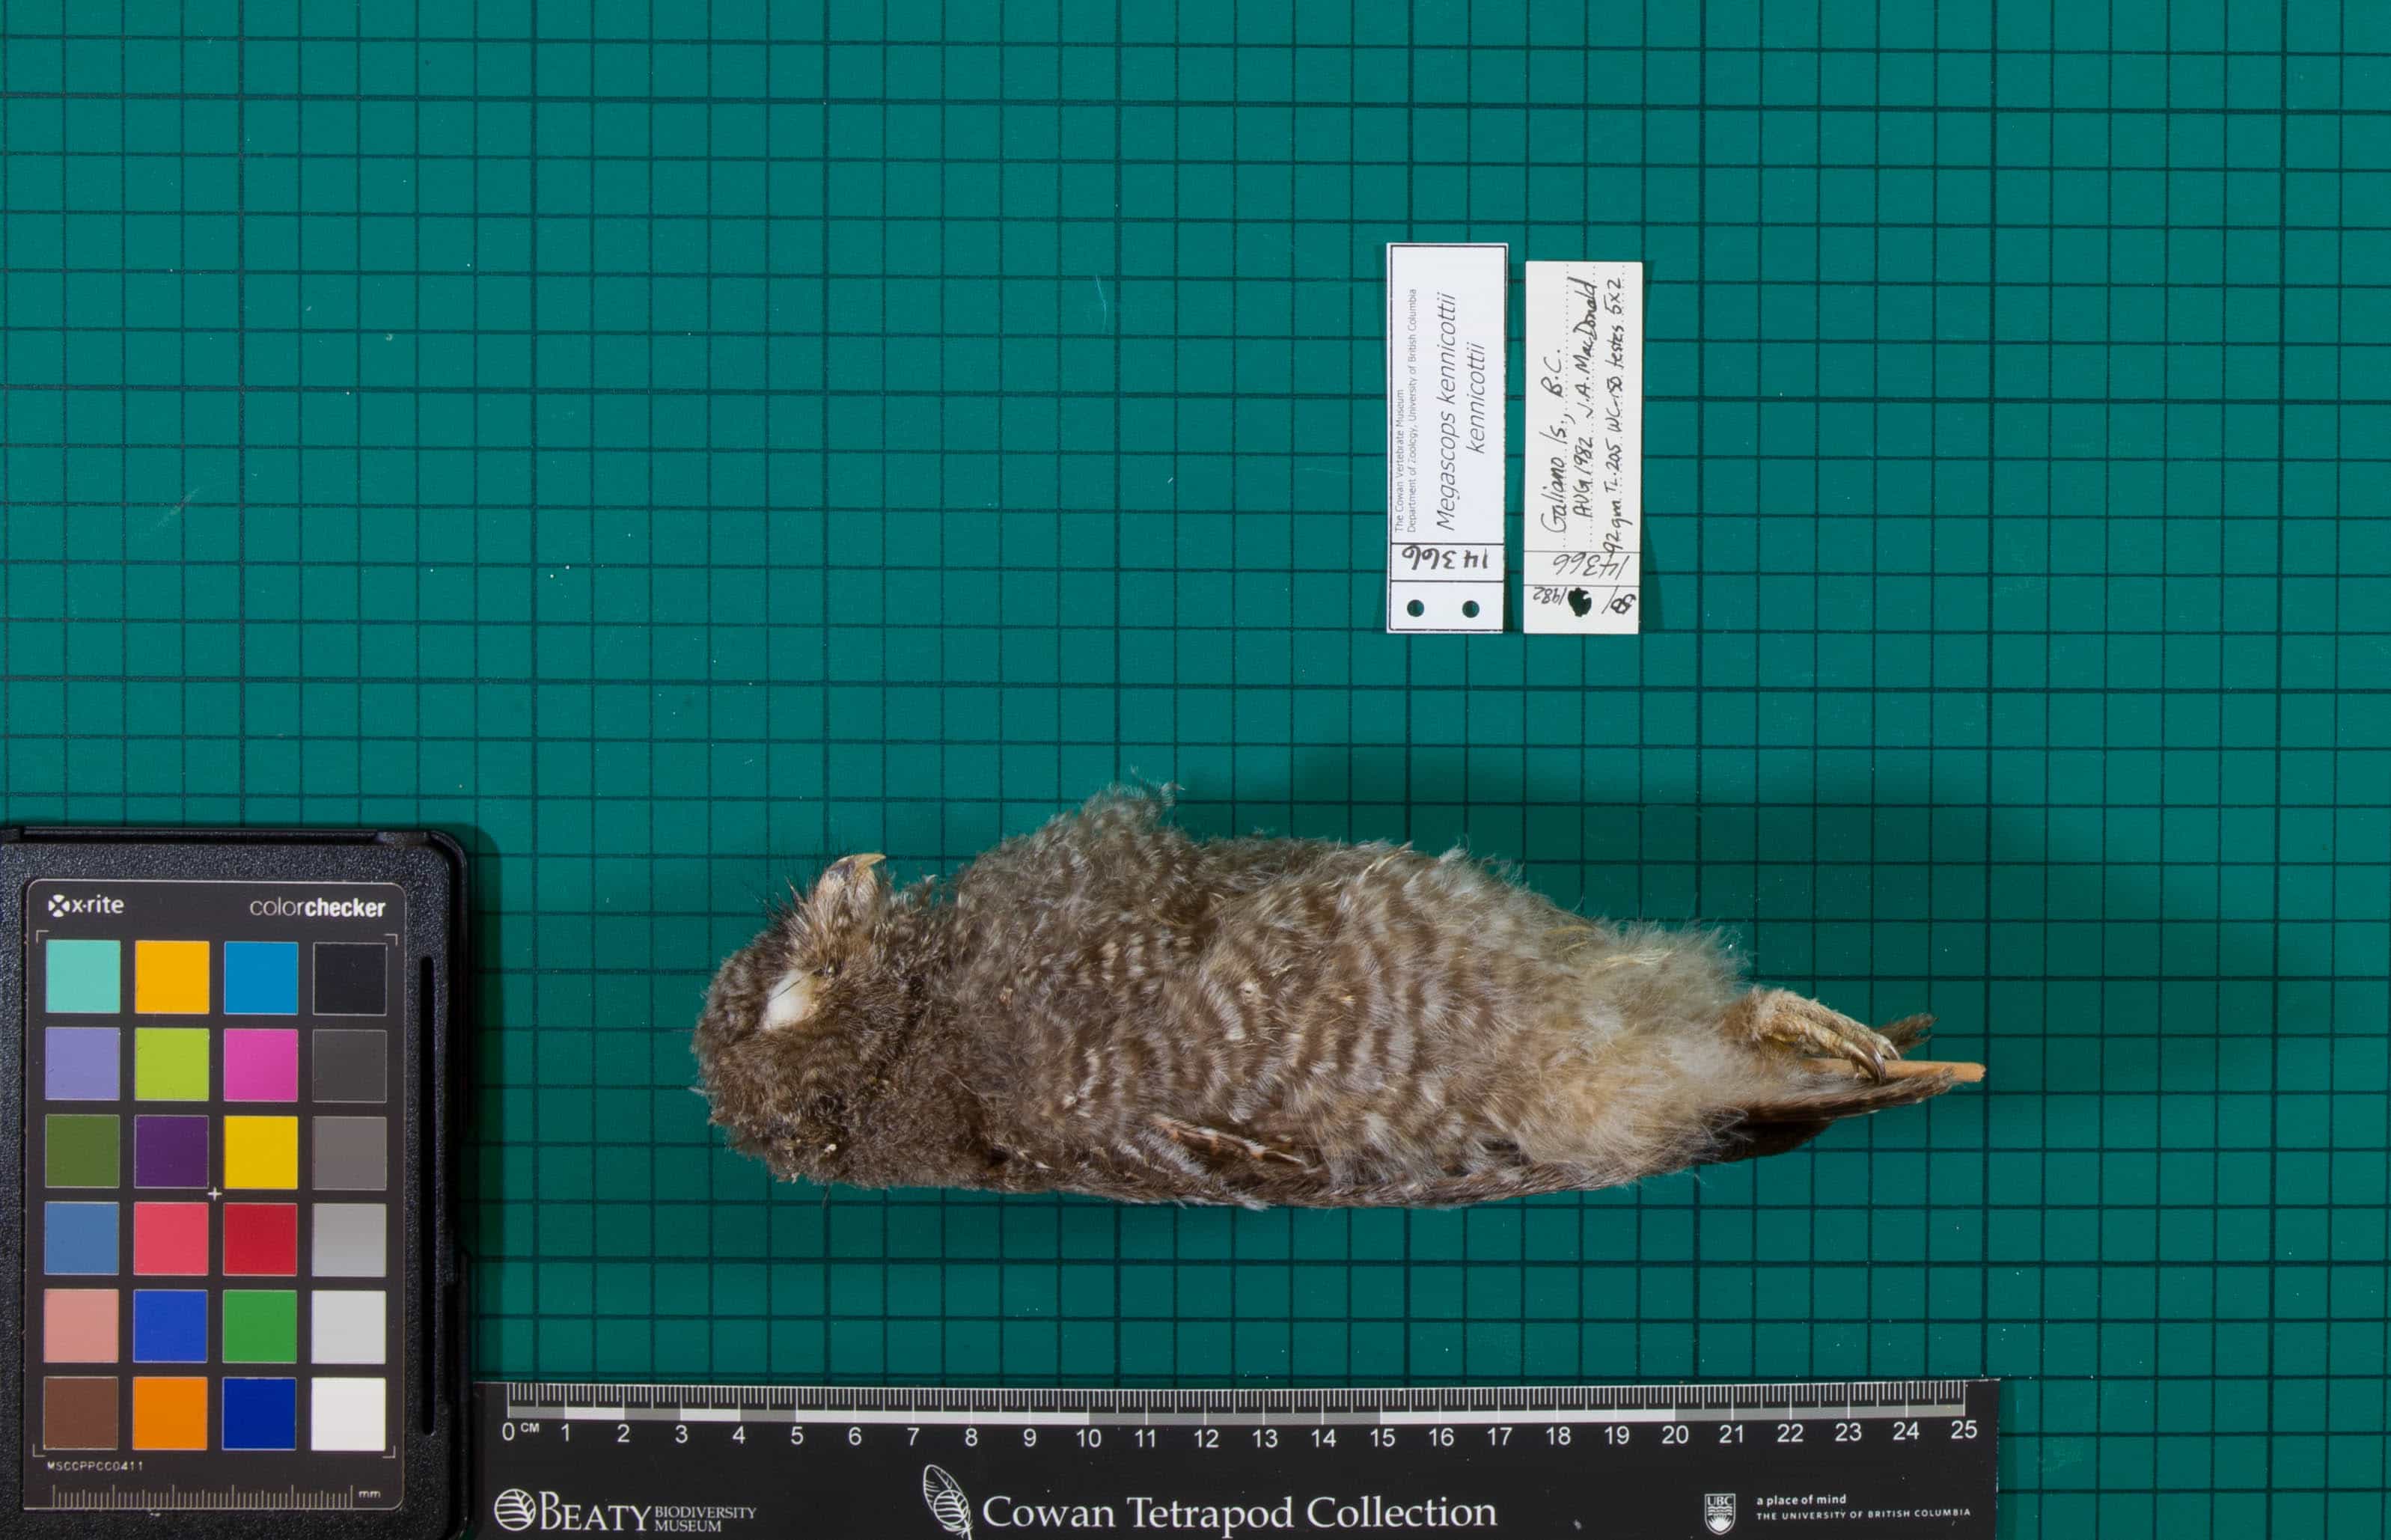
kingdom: Animalia
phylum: Chordata
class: Aves
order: Strigiformes
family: Strigidae
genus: Megascops
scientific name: Megascops kennicottii
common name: Western Screech-Owl
